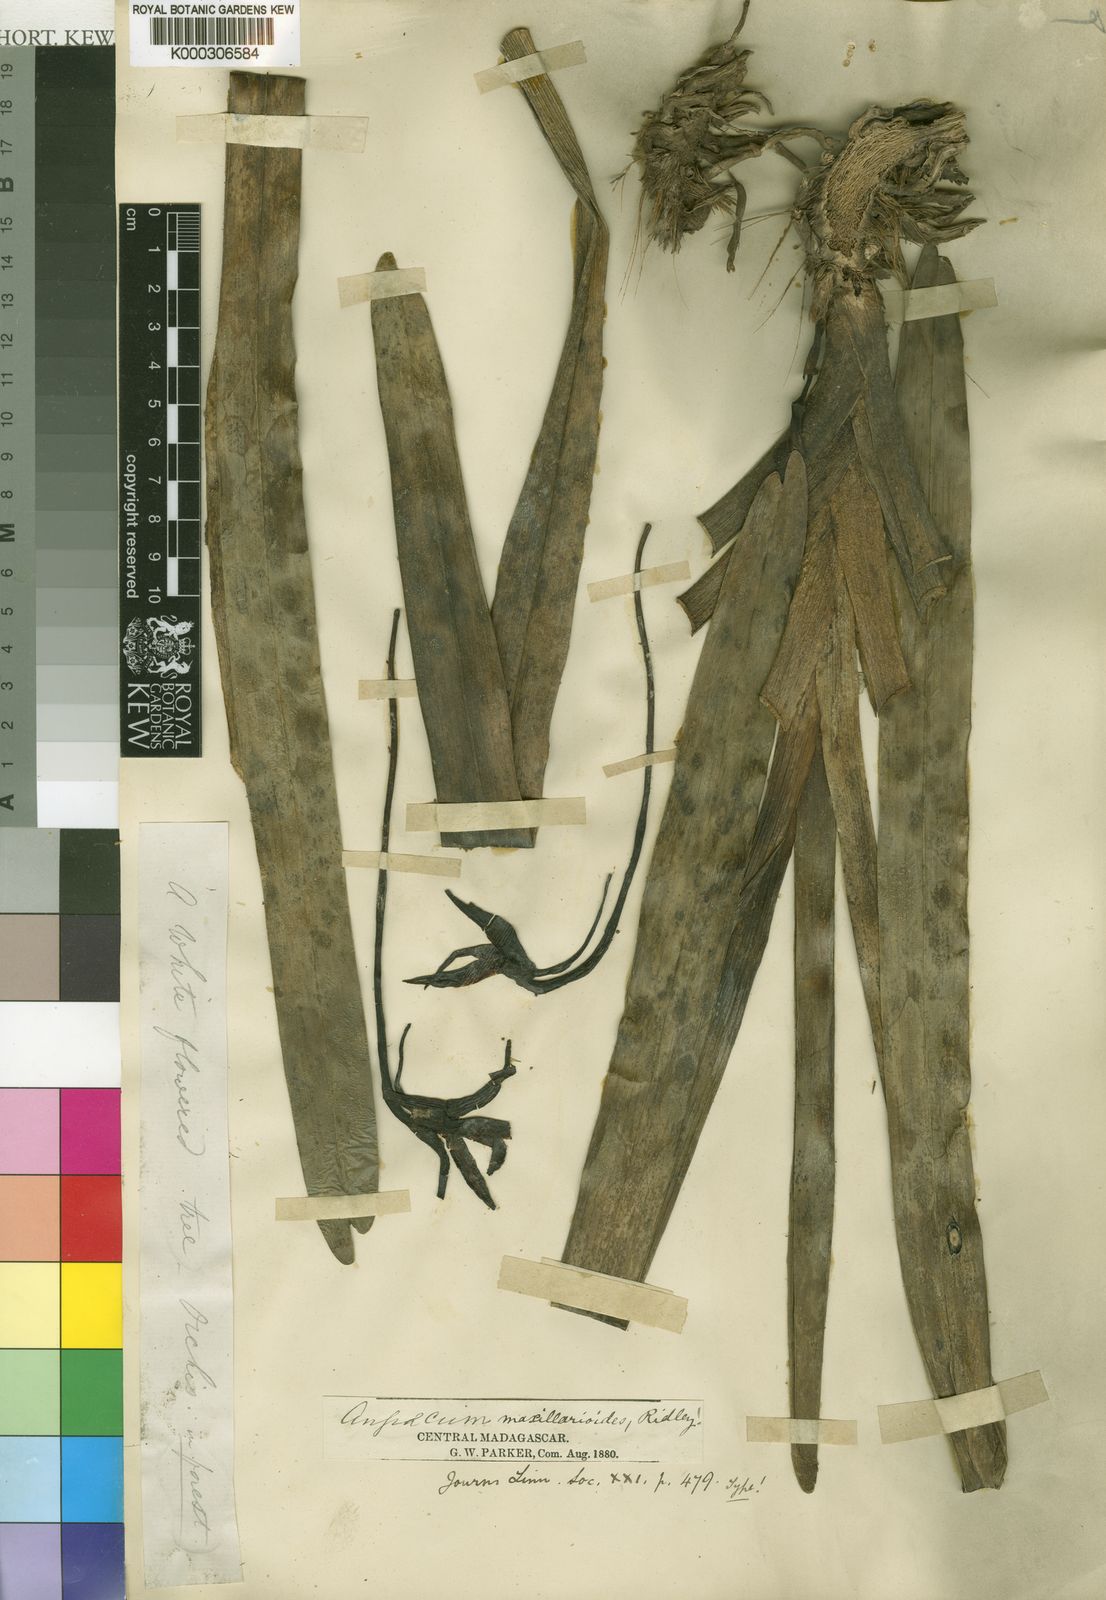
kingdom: Plantae
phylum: Tracheophyta
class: Liliopsida
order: Asparagales
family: Orchidaceae
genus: Jumellea
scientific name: Jumellea maxillarioides
